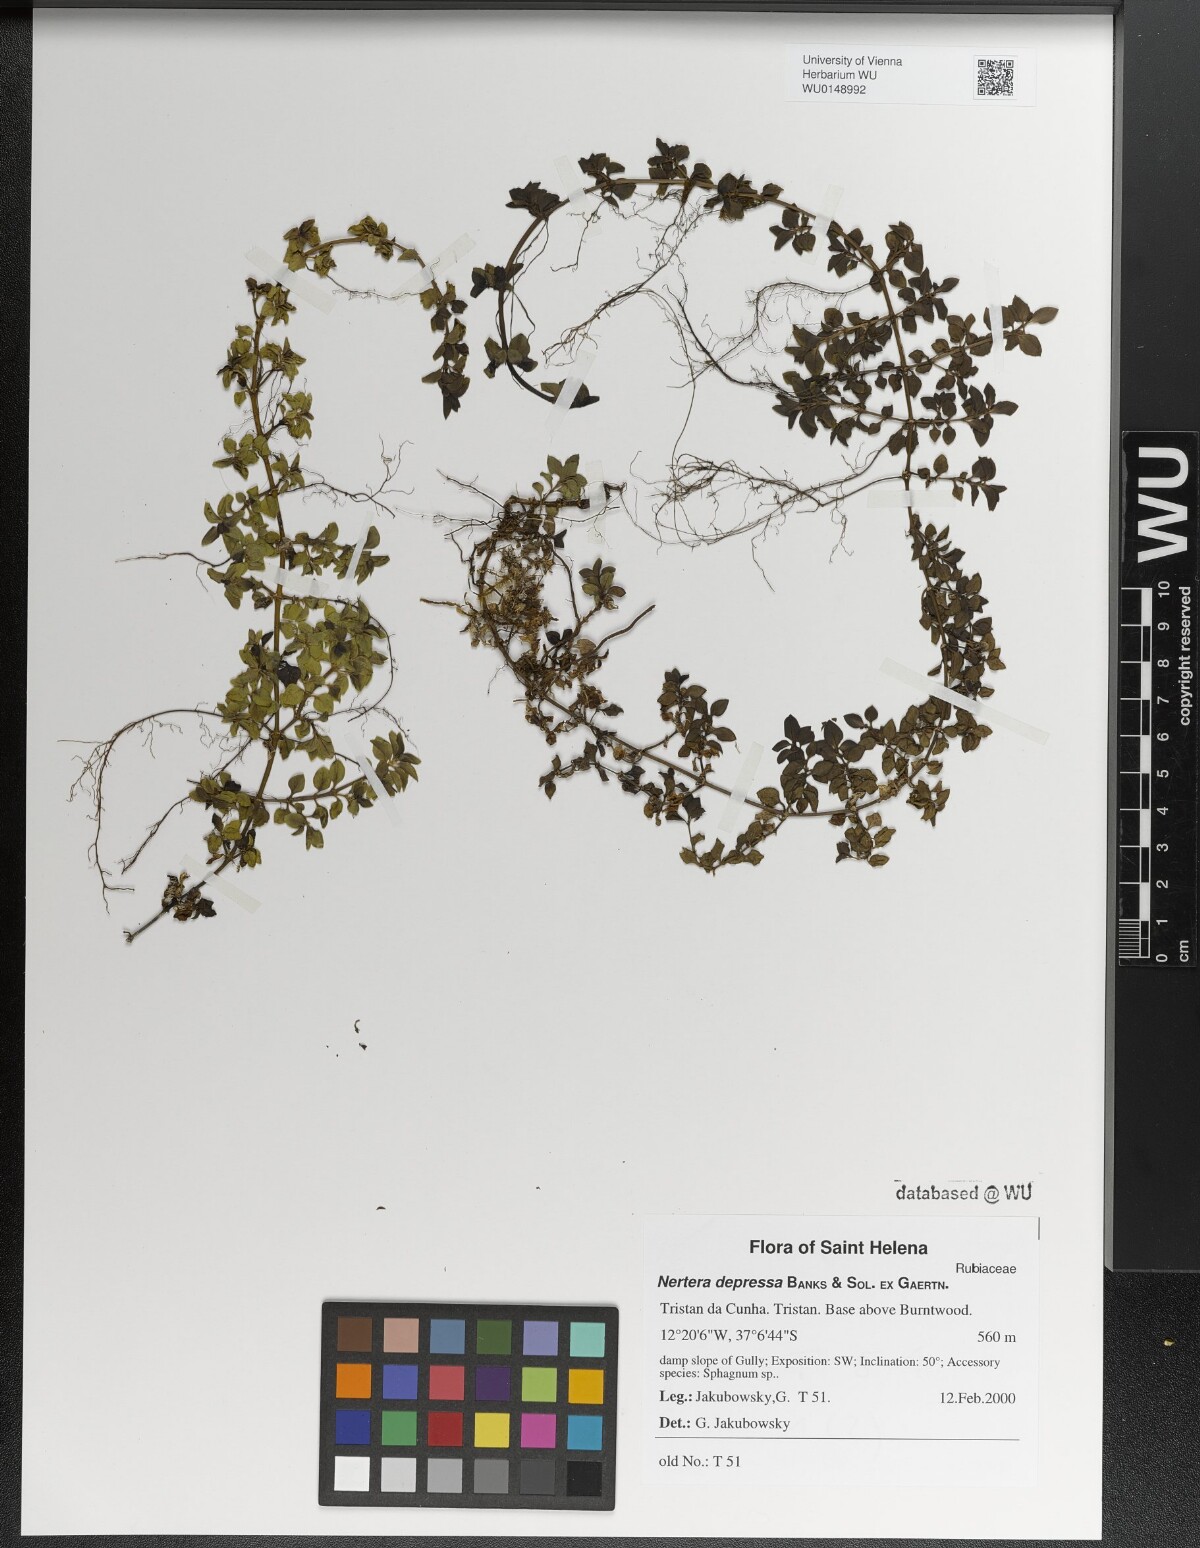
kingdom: Plantae
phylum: Tracheophyta
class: Magnoliopsida
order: Gentianales
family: Rubiaceae
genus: Nertera
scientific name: Nertera granadensis
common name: Beadplant
